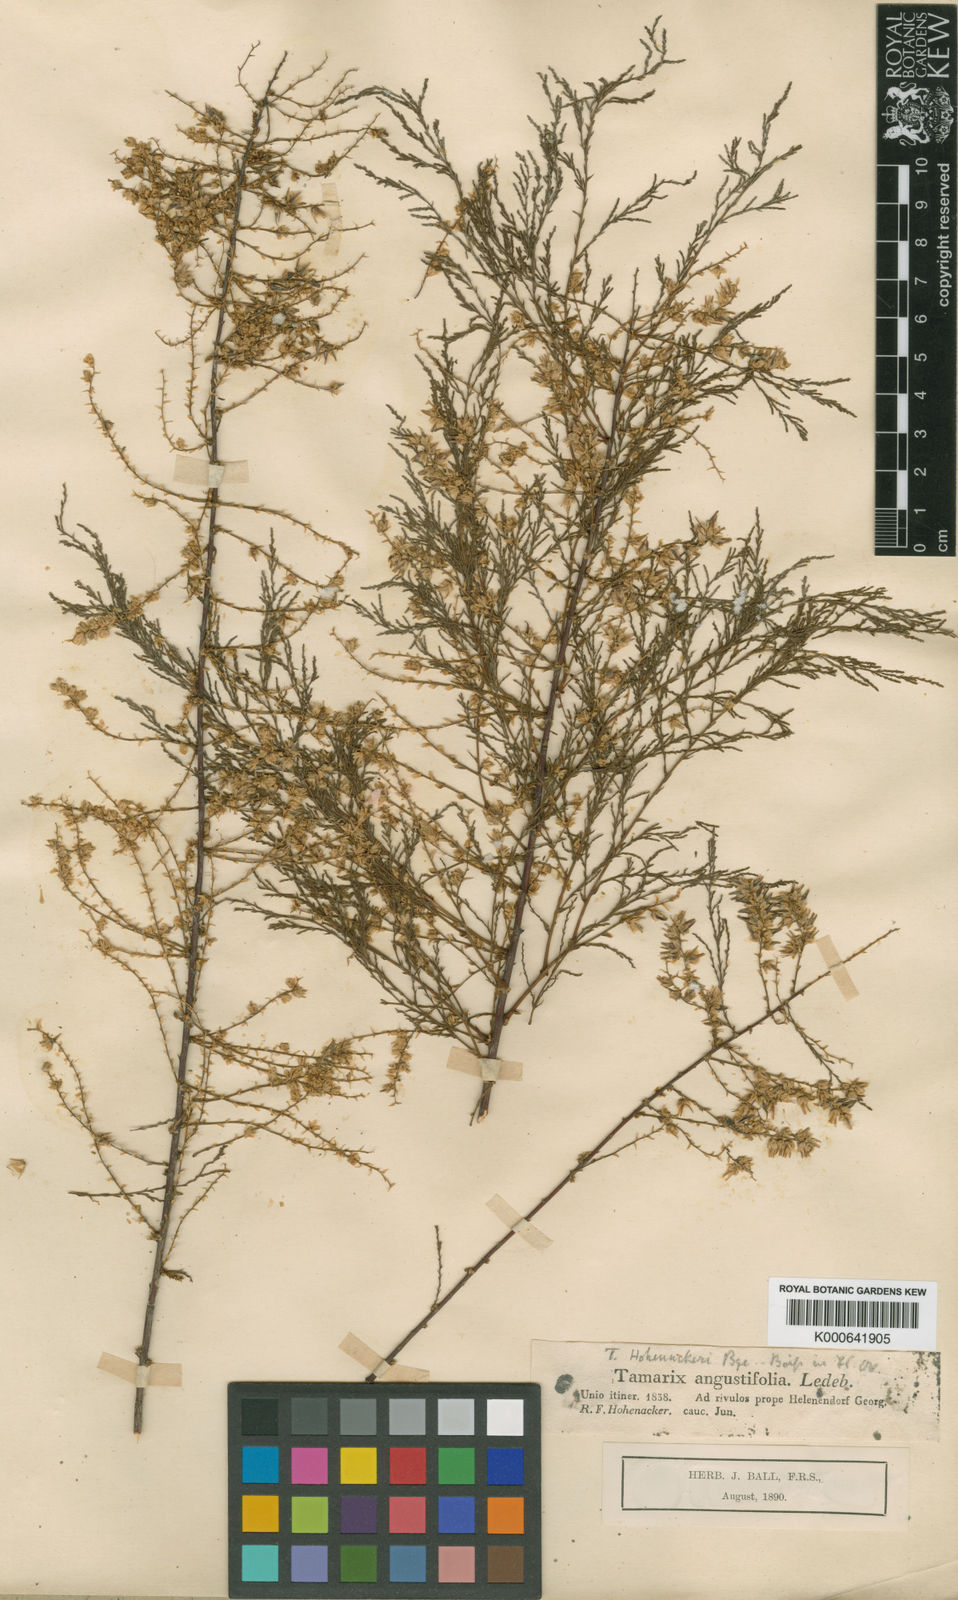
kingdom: Plantae
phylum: Tracheophyta
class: Magnoliopsida
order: Caryophyllales
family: Tamaricaceae
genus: Tamarix
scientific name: Tamarix hohenackeri
